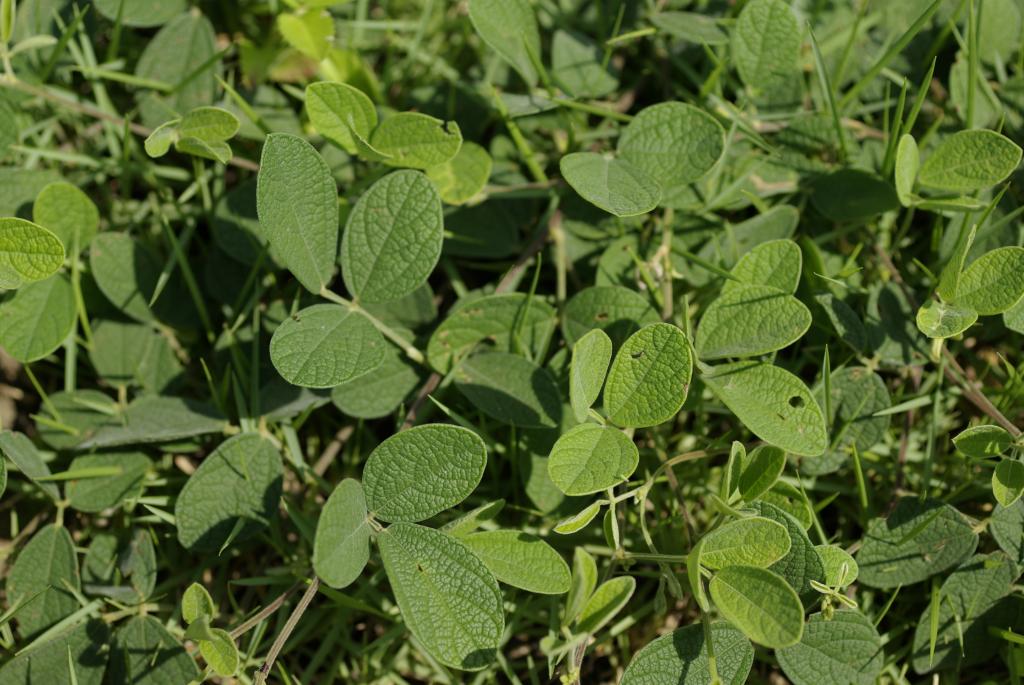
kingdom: Plantae
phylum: Tracheophyta
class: Magnoliopsida
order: Fabales
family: Fabaceae
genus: Cajanus
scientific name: Cajanus scarabaeoides
